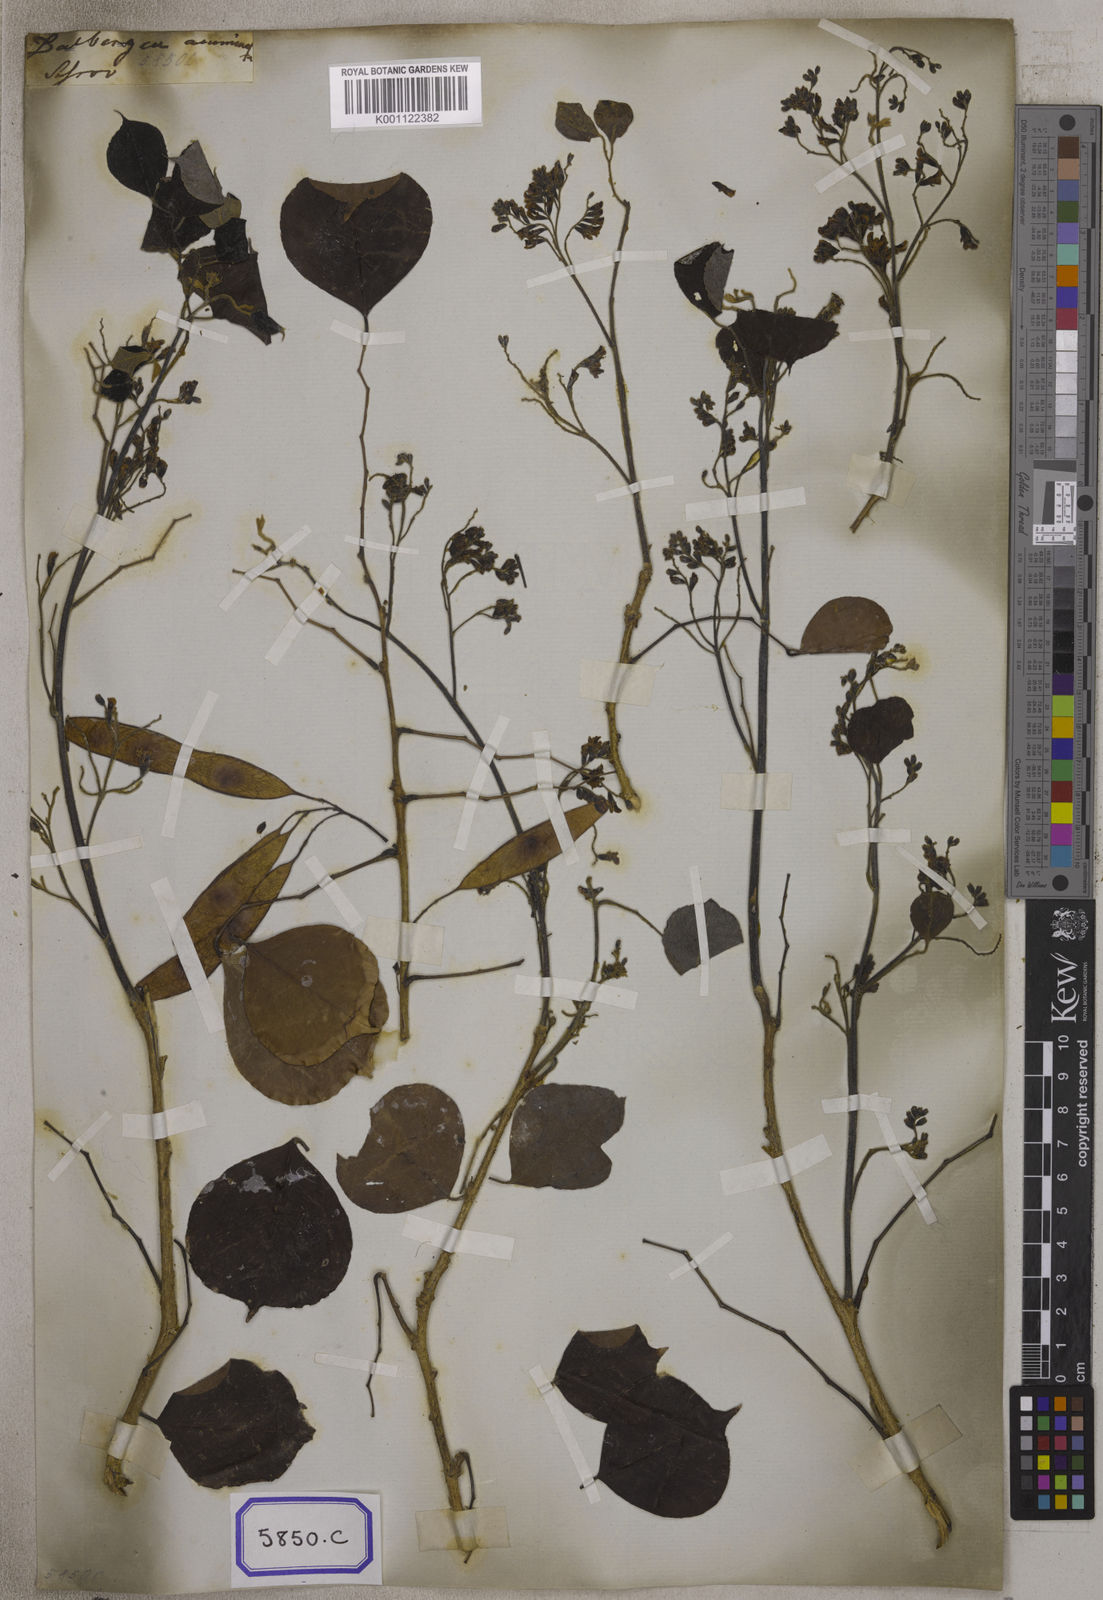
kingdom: Plantae
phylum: Tracheophyta
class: Magnoliopsida
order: Fabales
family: Fabaceae
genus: Dalbergia
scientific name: Dalbergia
